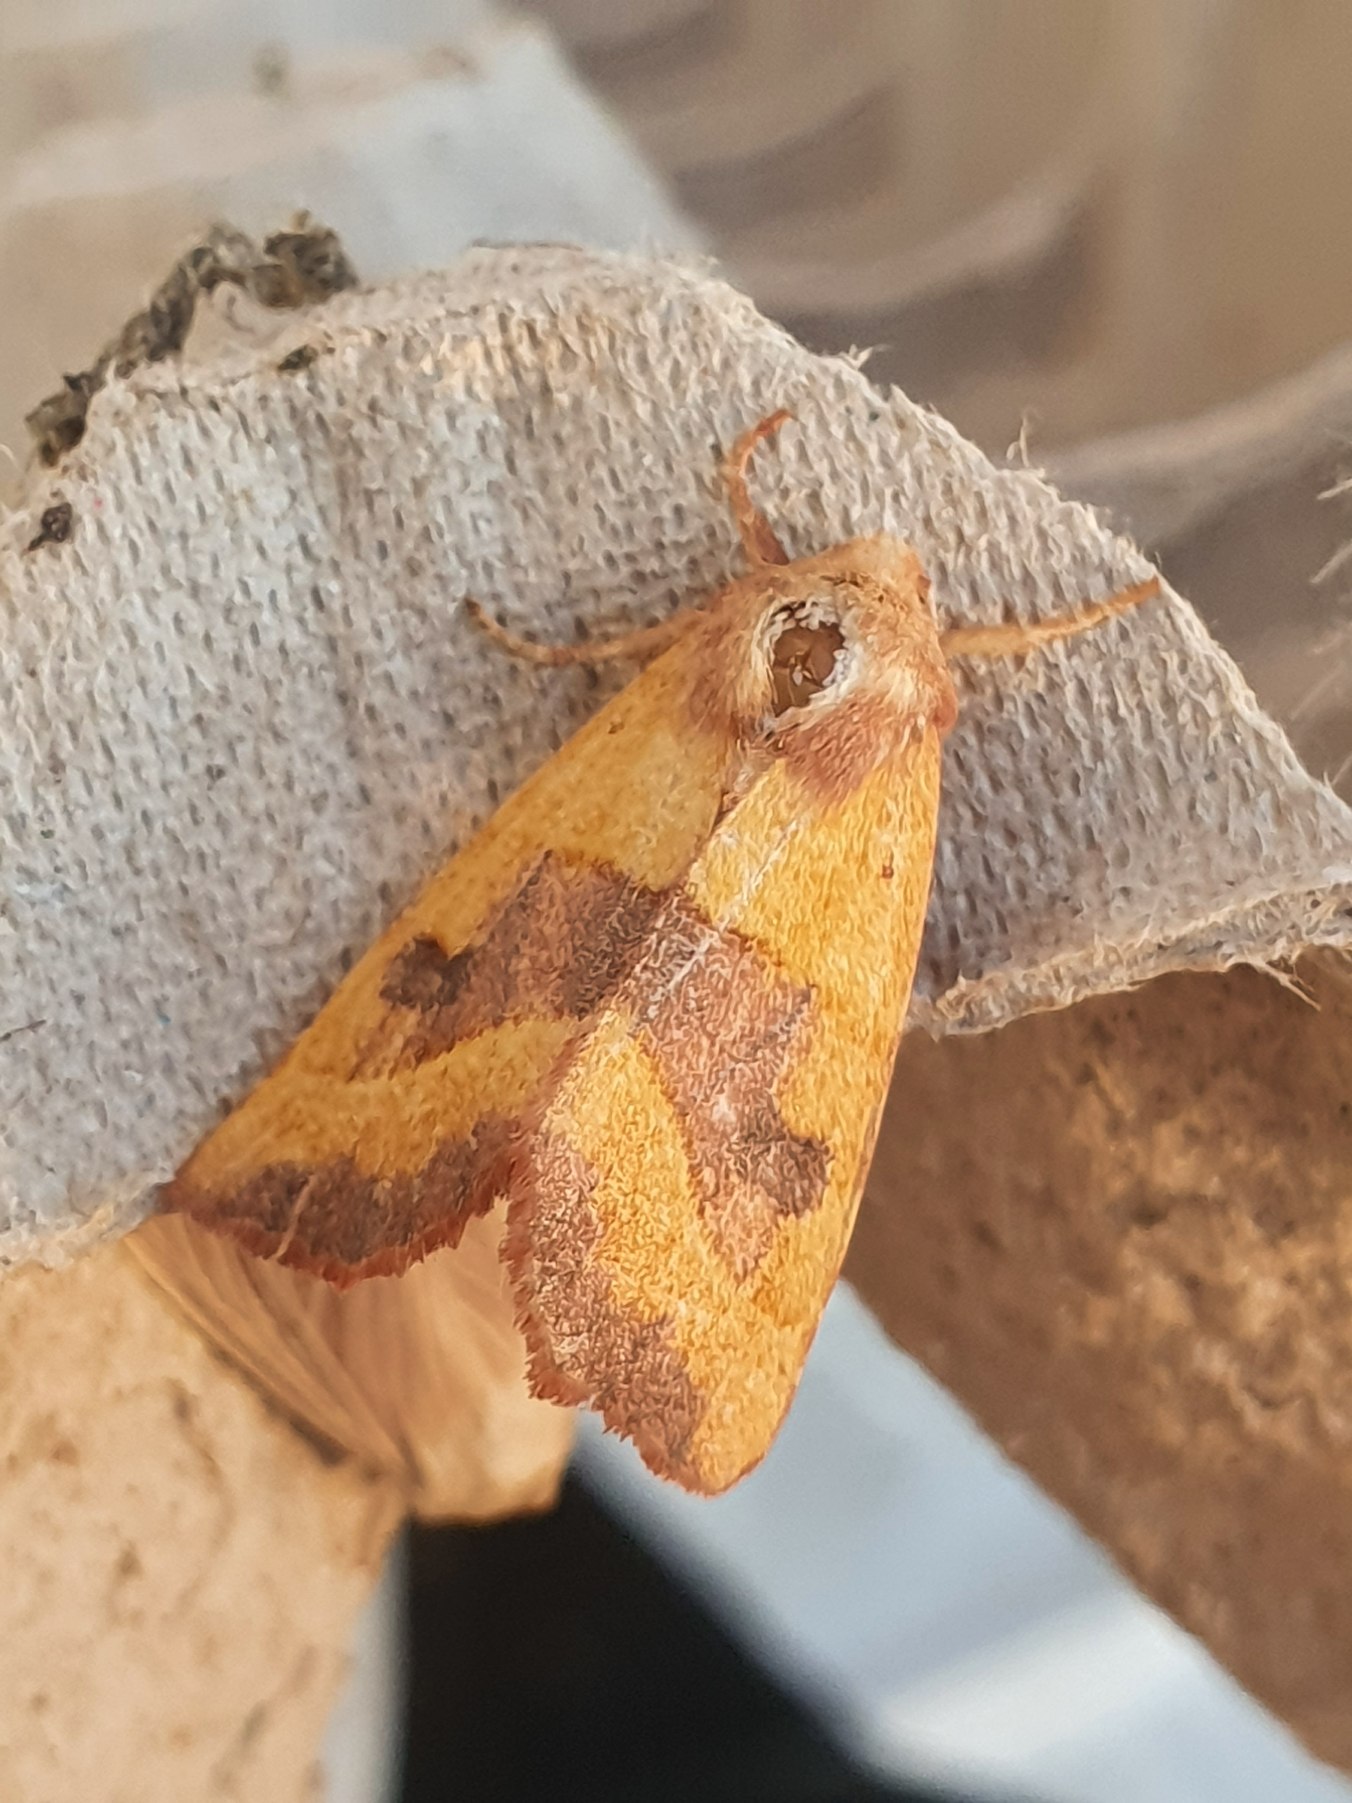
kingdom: Animalia
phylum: Arthropoda
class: Insecta
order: Lepidoptera
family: Noctuidae
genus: Atethmia
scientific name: Atethmia centrago
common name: Aske-septemberugle
